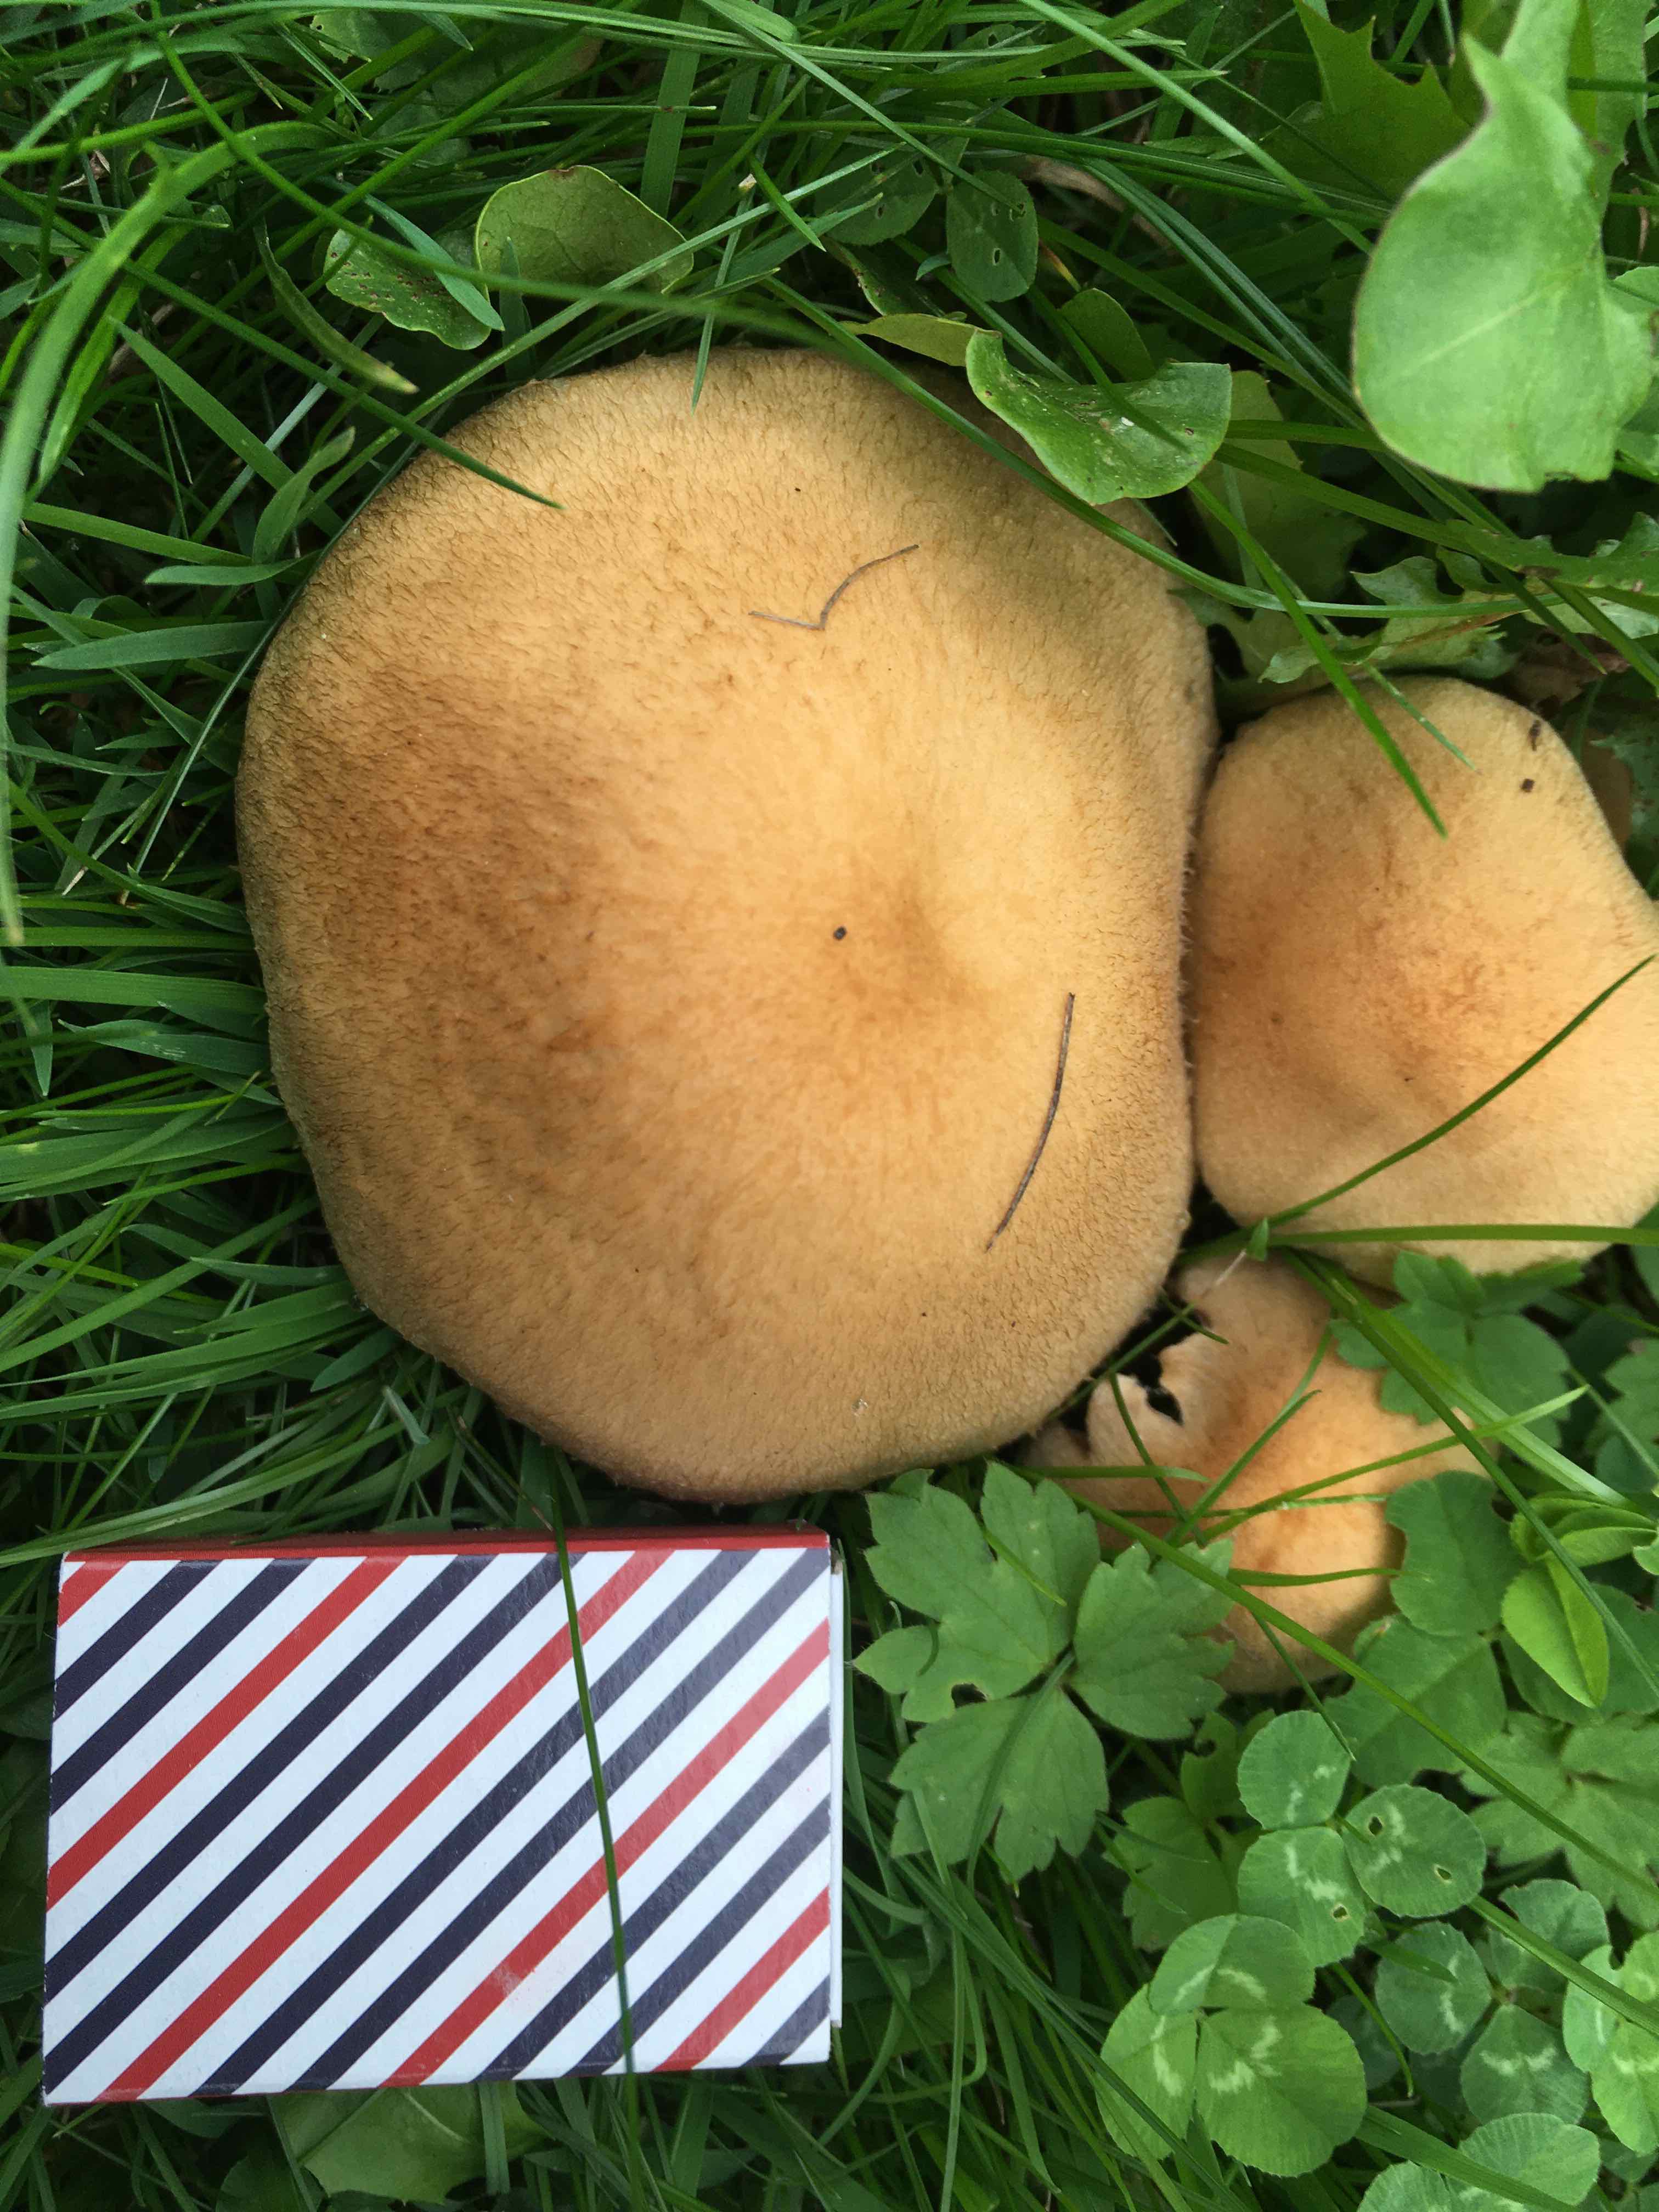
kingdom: Fungi
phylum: Basidiomycota
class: Agaricomycetes
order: Agaricales
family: Psathyrellaceae
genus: Lacrymaria
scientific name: Lacrymaria lacrymabunda
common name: grædende mørkhat
